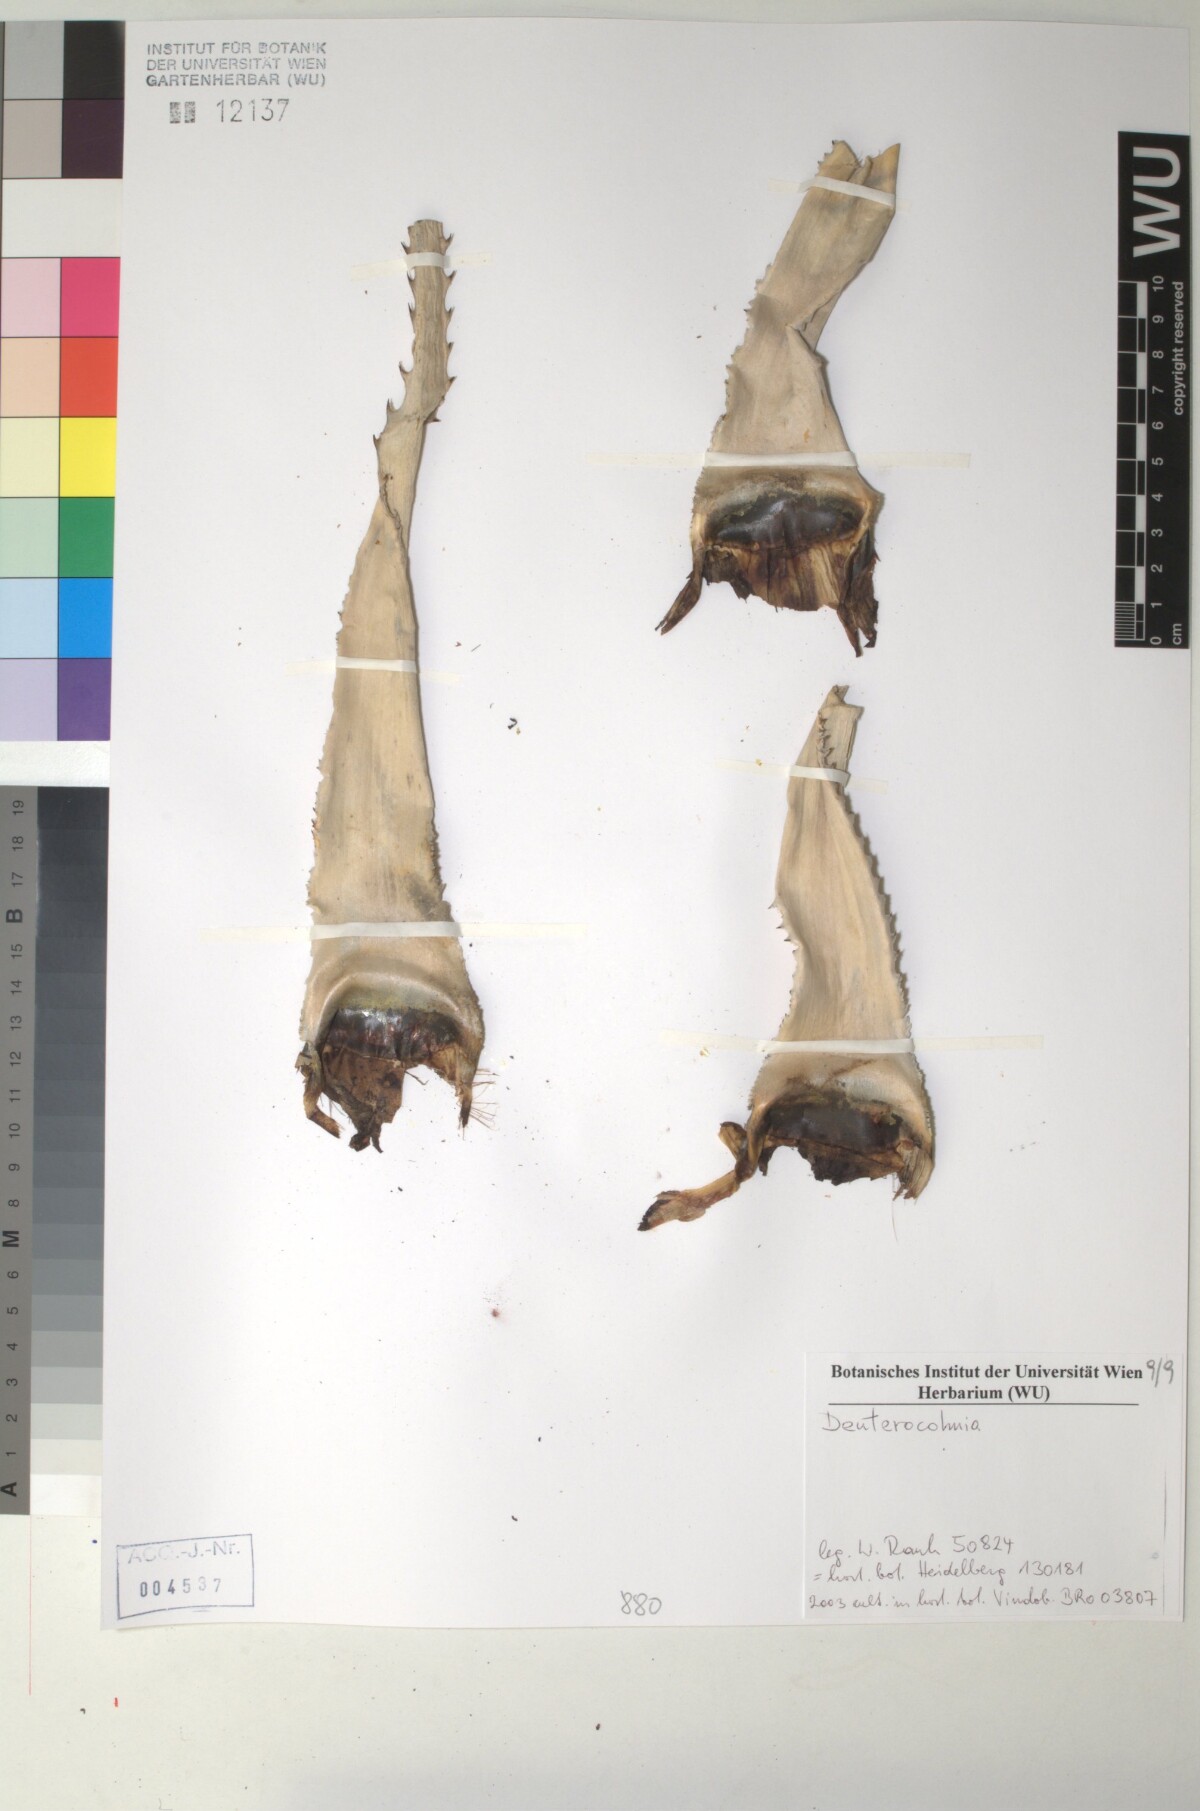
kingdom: Plantae
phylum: Tracheophyta
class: Liliopsida
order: Poales
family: Bromeliaceae
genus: Deuterocohnia
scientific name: Deuterocohnia
